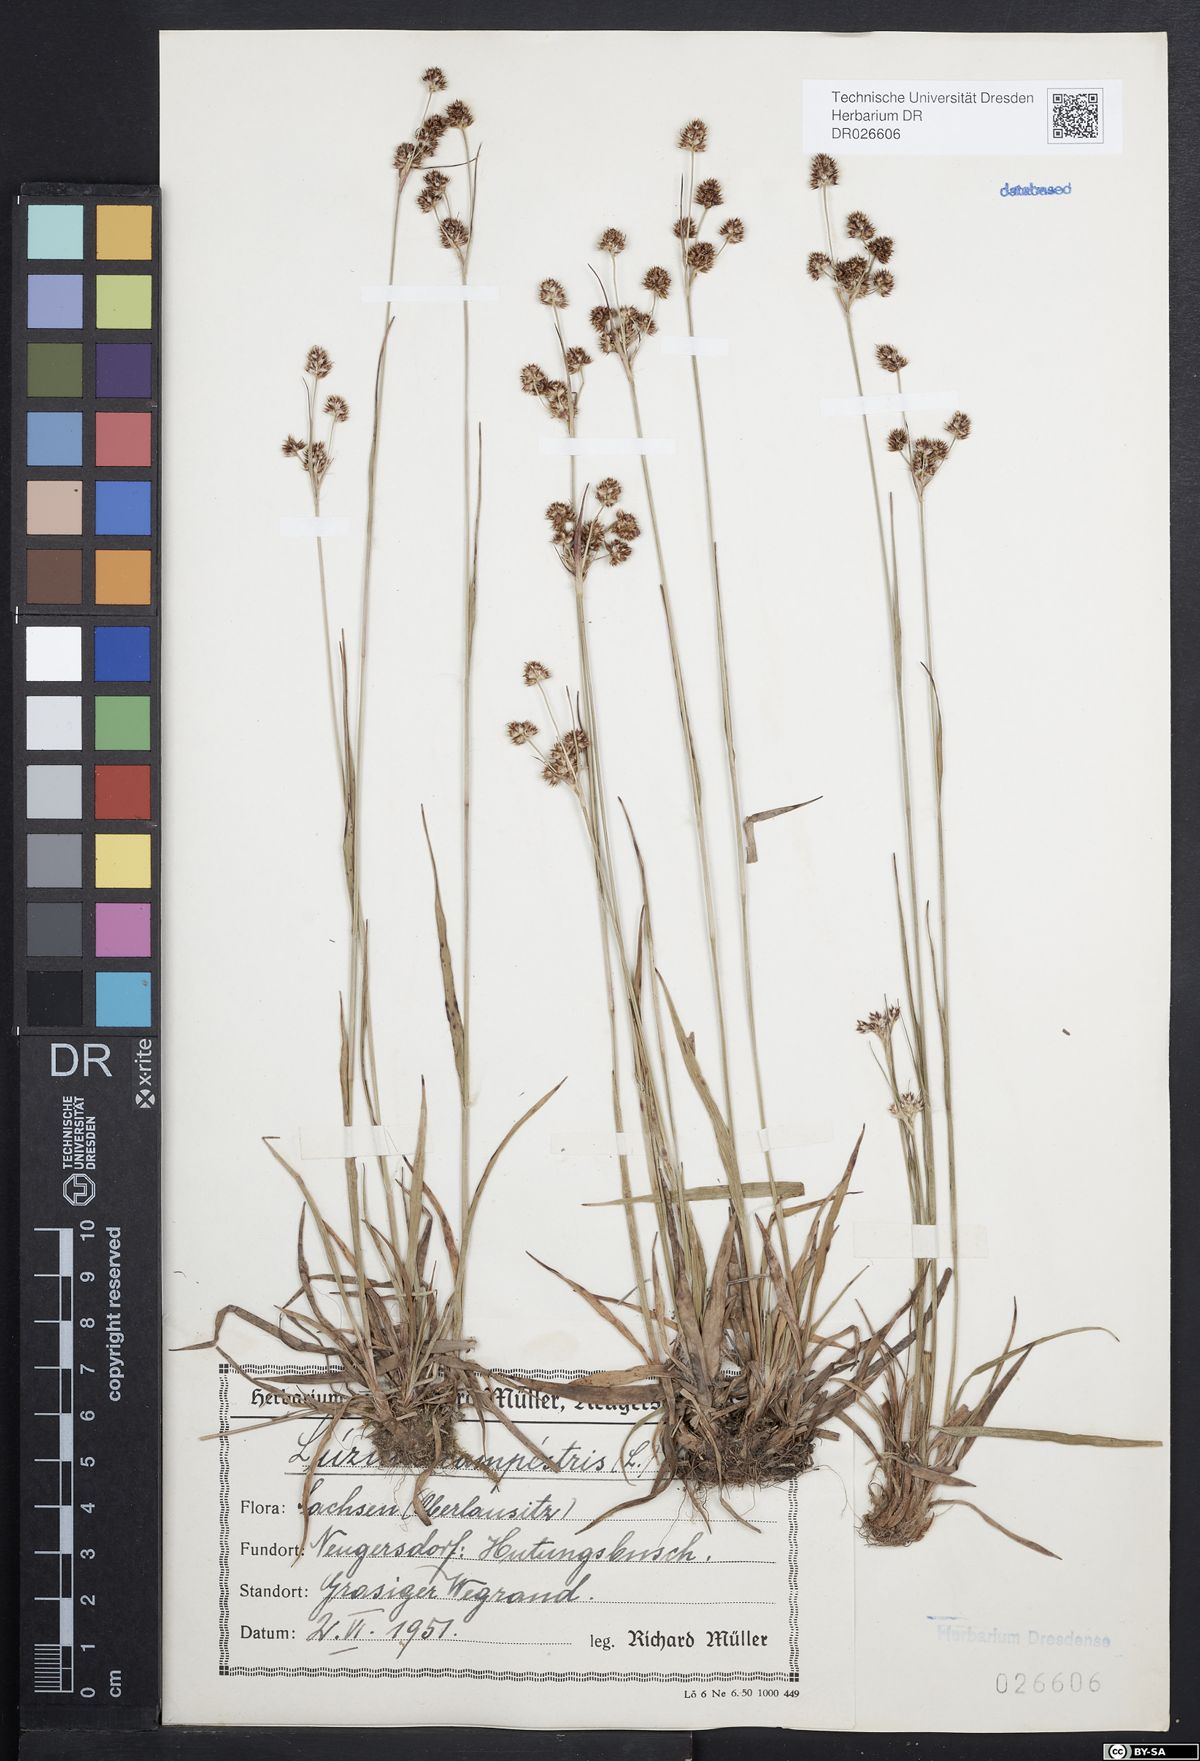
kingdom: Plantae
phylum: Tracheophyta
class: Liliopsida
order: Poales
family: Juncaceae
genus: Luzula
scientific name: Luzula campestris
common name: Field wood-rush
